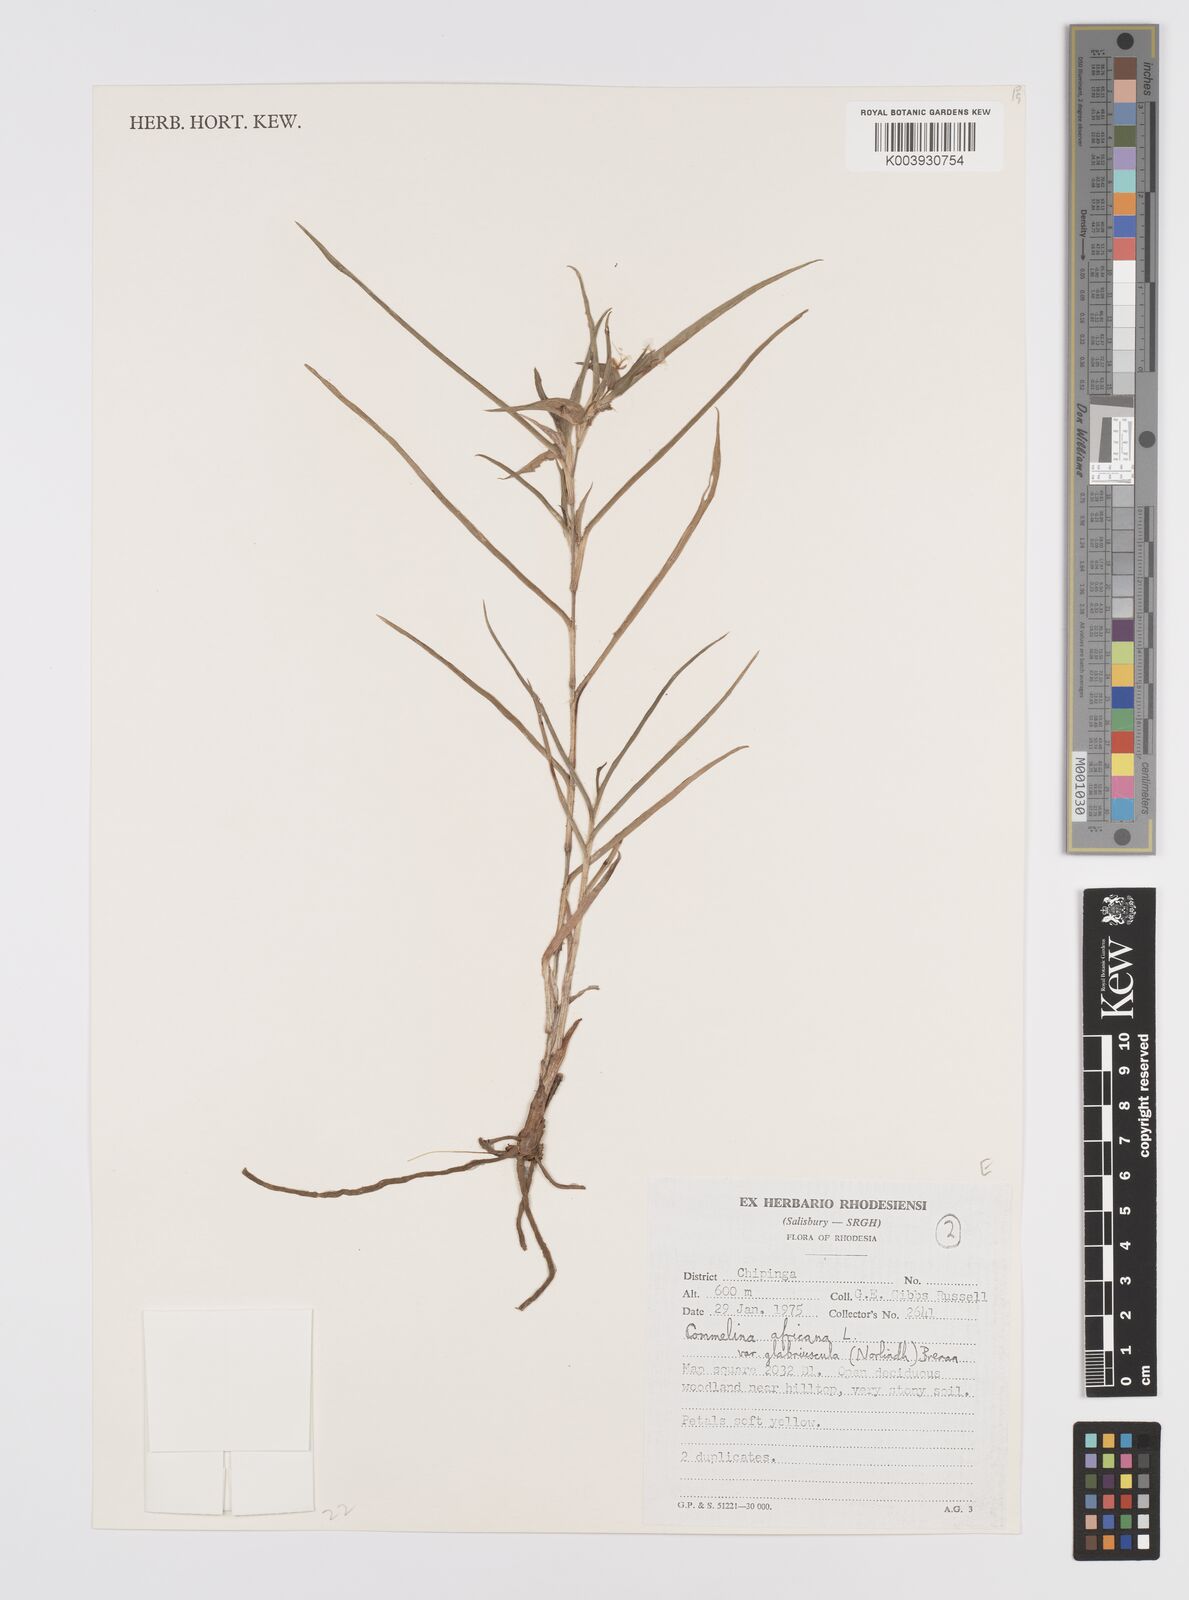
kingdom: Plantae
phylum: Tracheophyta
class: Liliopsida
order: Commelinales
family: Commelinaceae
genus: Commelina
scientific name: Commelina africana
